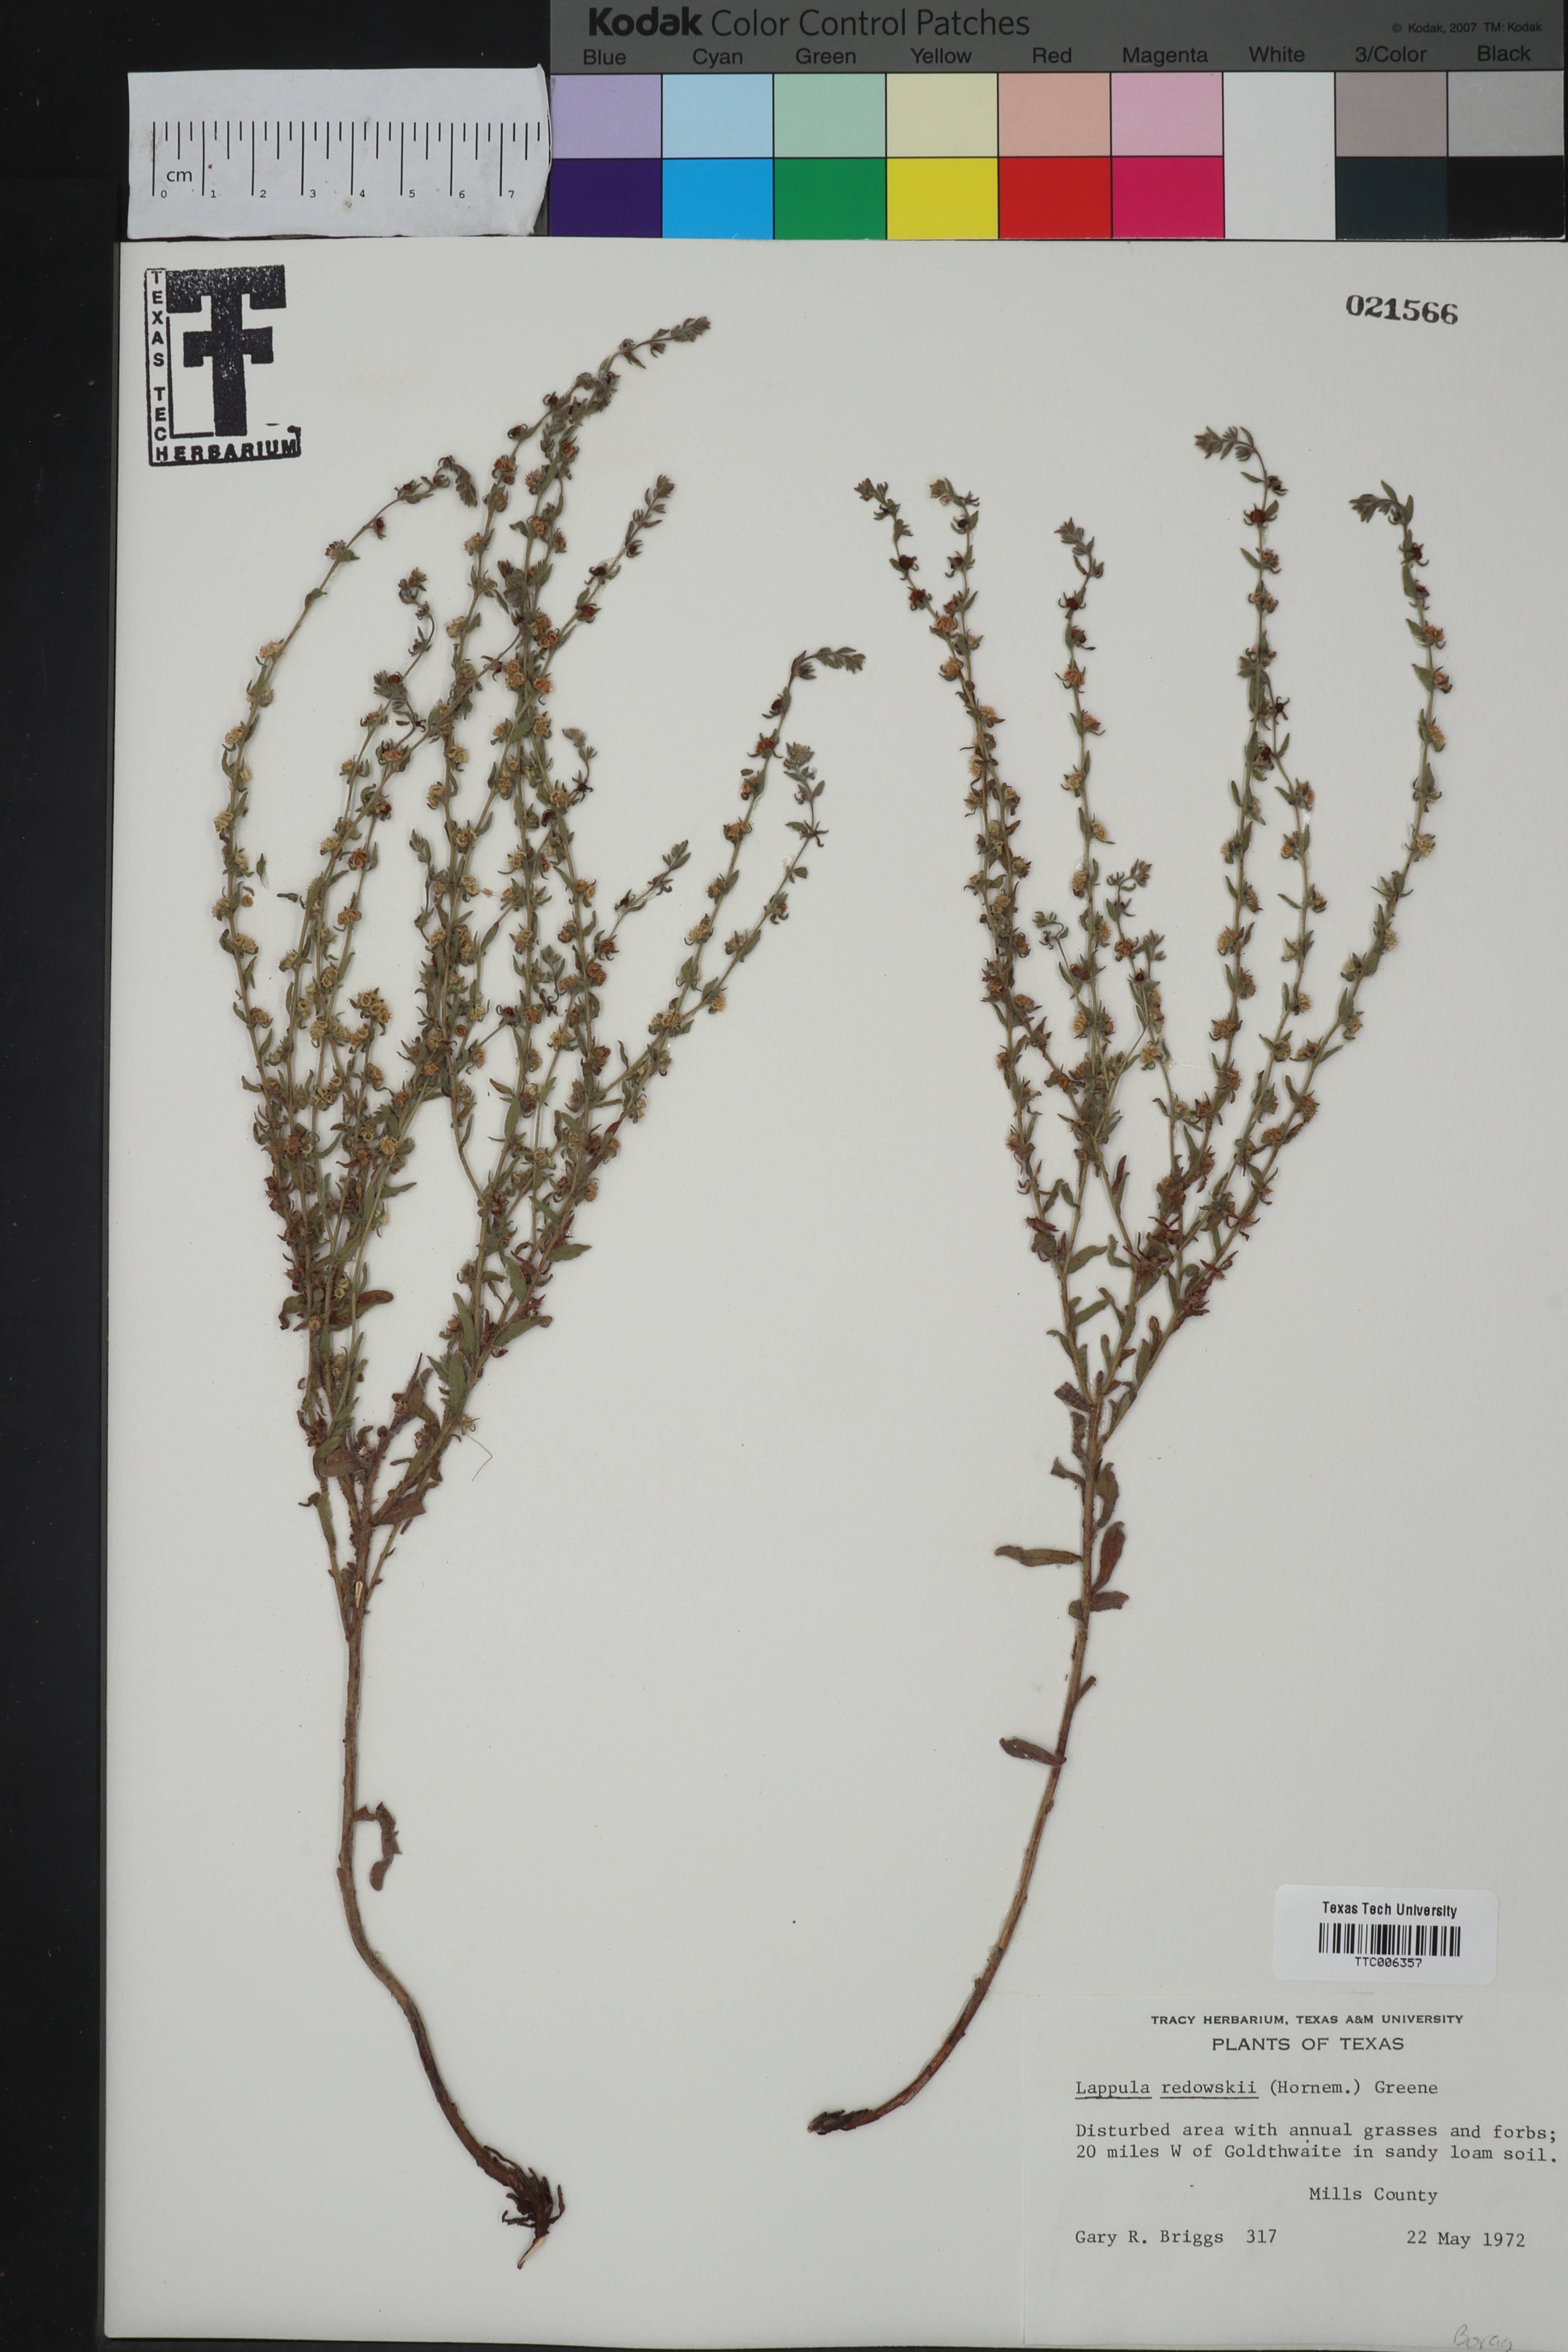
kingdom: Plantae
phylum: Tracheophyta
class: Magnoliopsida
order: Boraginales
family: Boraginaceae
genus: Lappula
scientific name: Lappula redowskii
